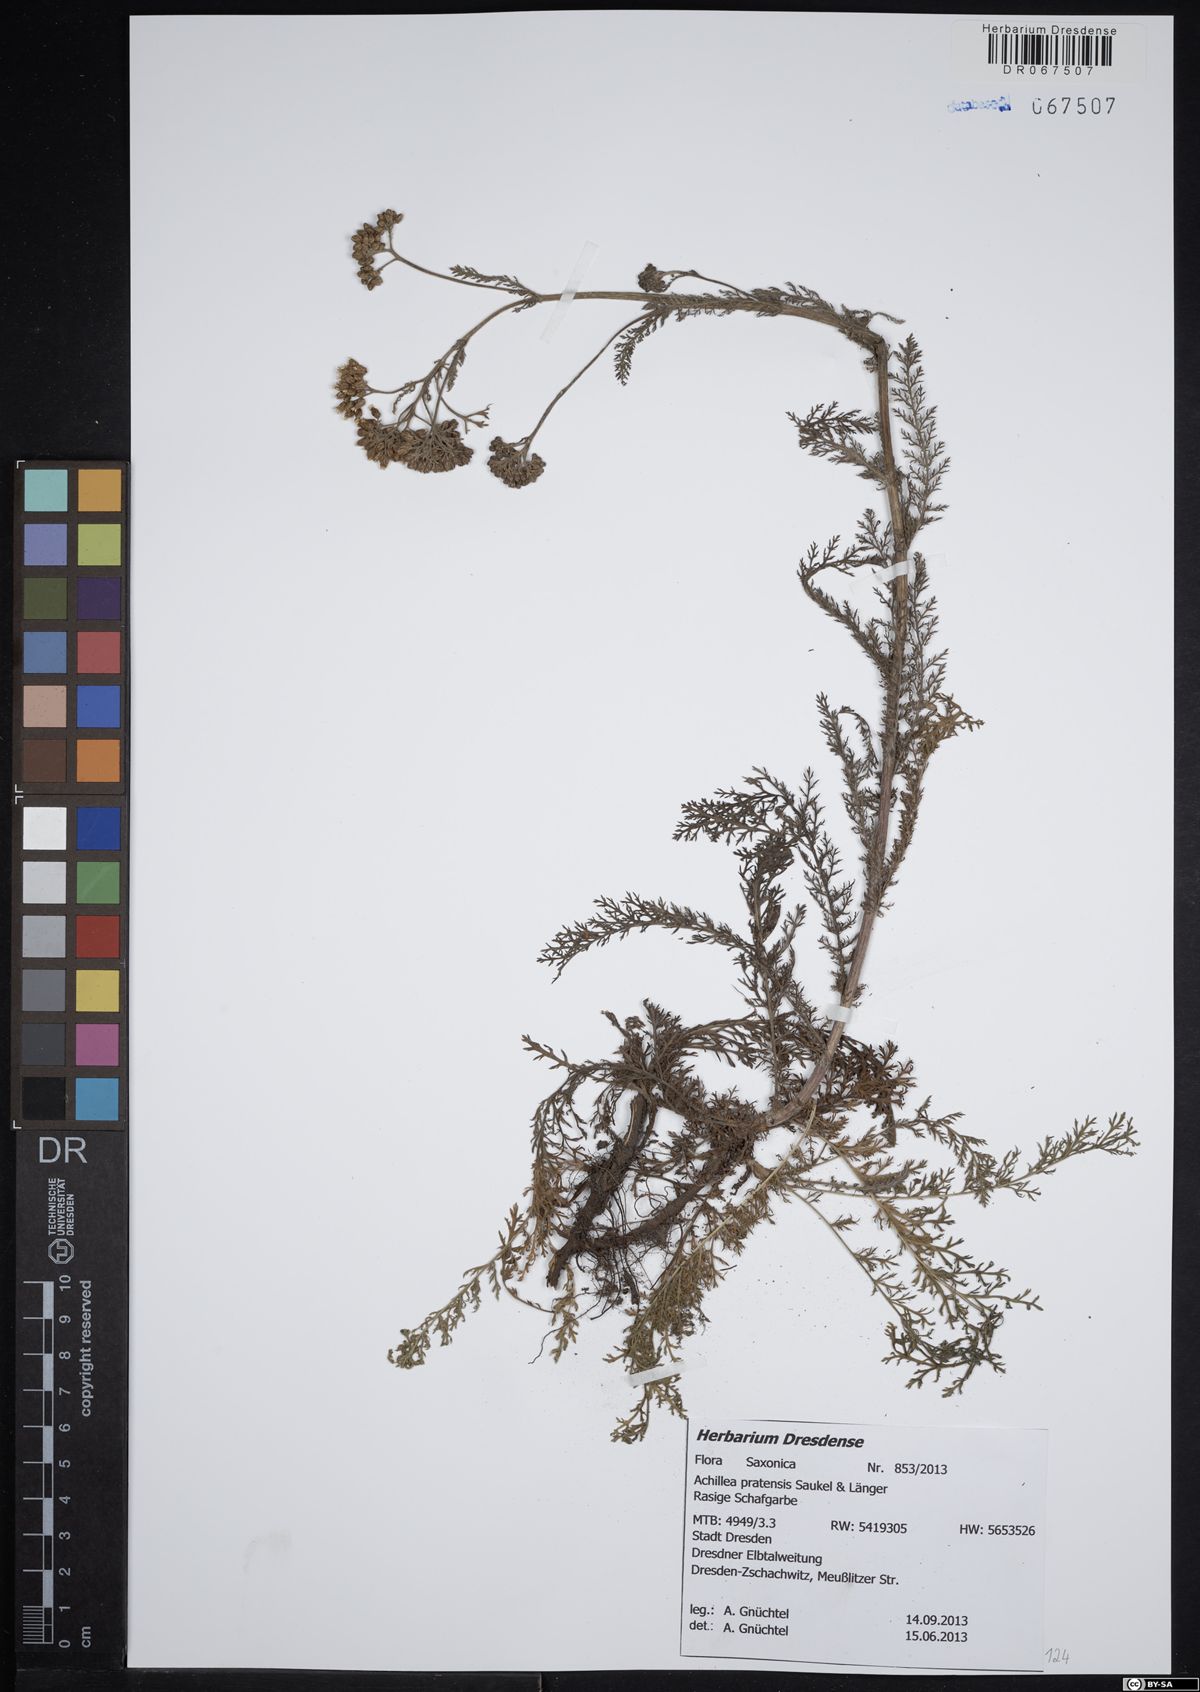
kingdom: Plantae
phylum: Tracheophyta
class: Magnoliopsida
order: Asterales
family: Asteraceae
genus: Achillea
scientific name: Achillea pratensis
